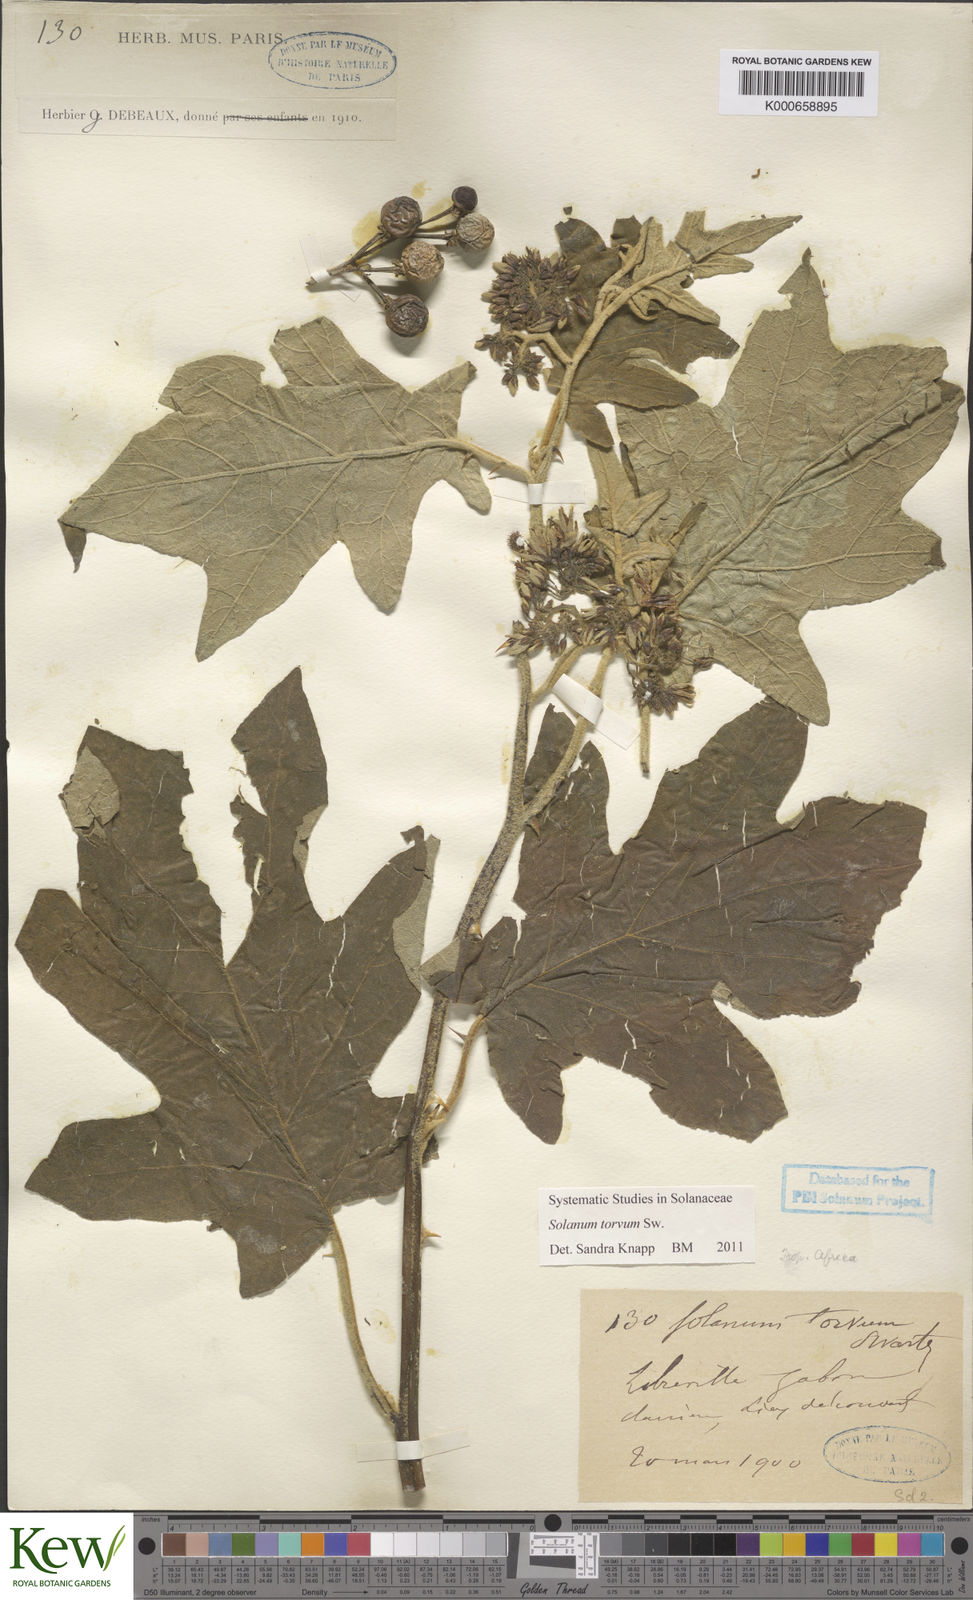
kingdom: Plantae
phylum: Tracheophyta
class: Magnoliopsida
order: Solanales
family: Solanaceae
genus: Solanum
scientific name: Solanum torvum
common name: Turkey berry
